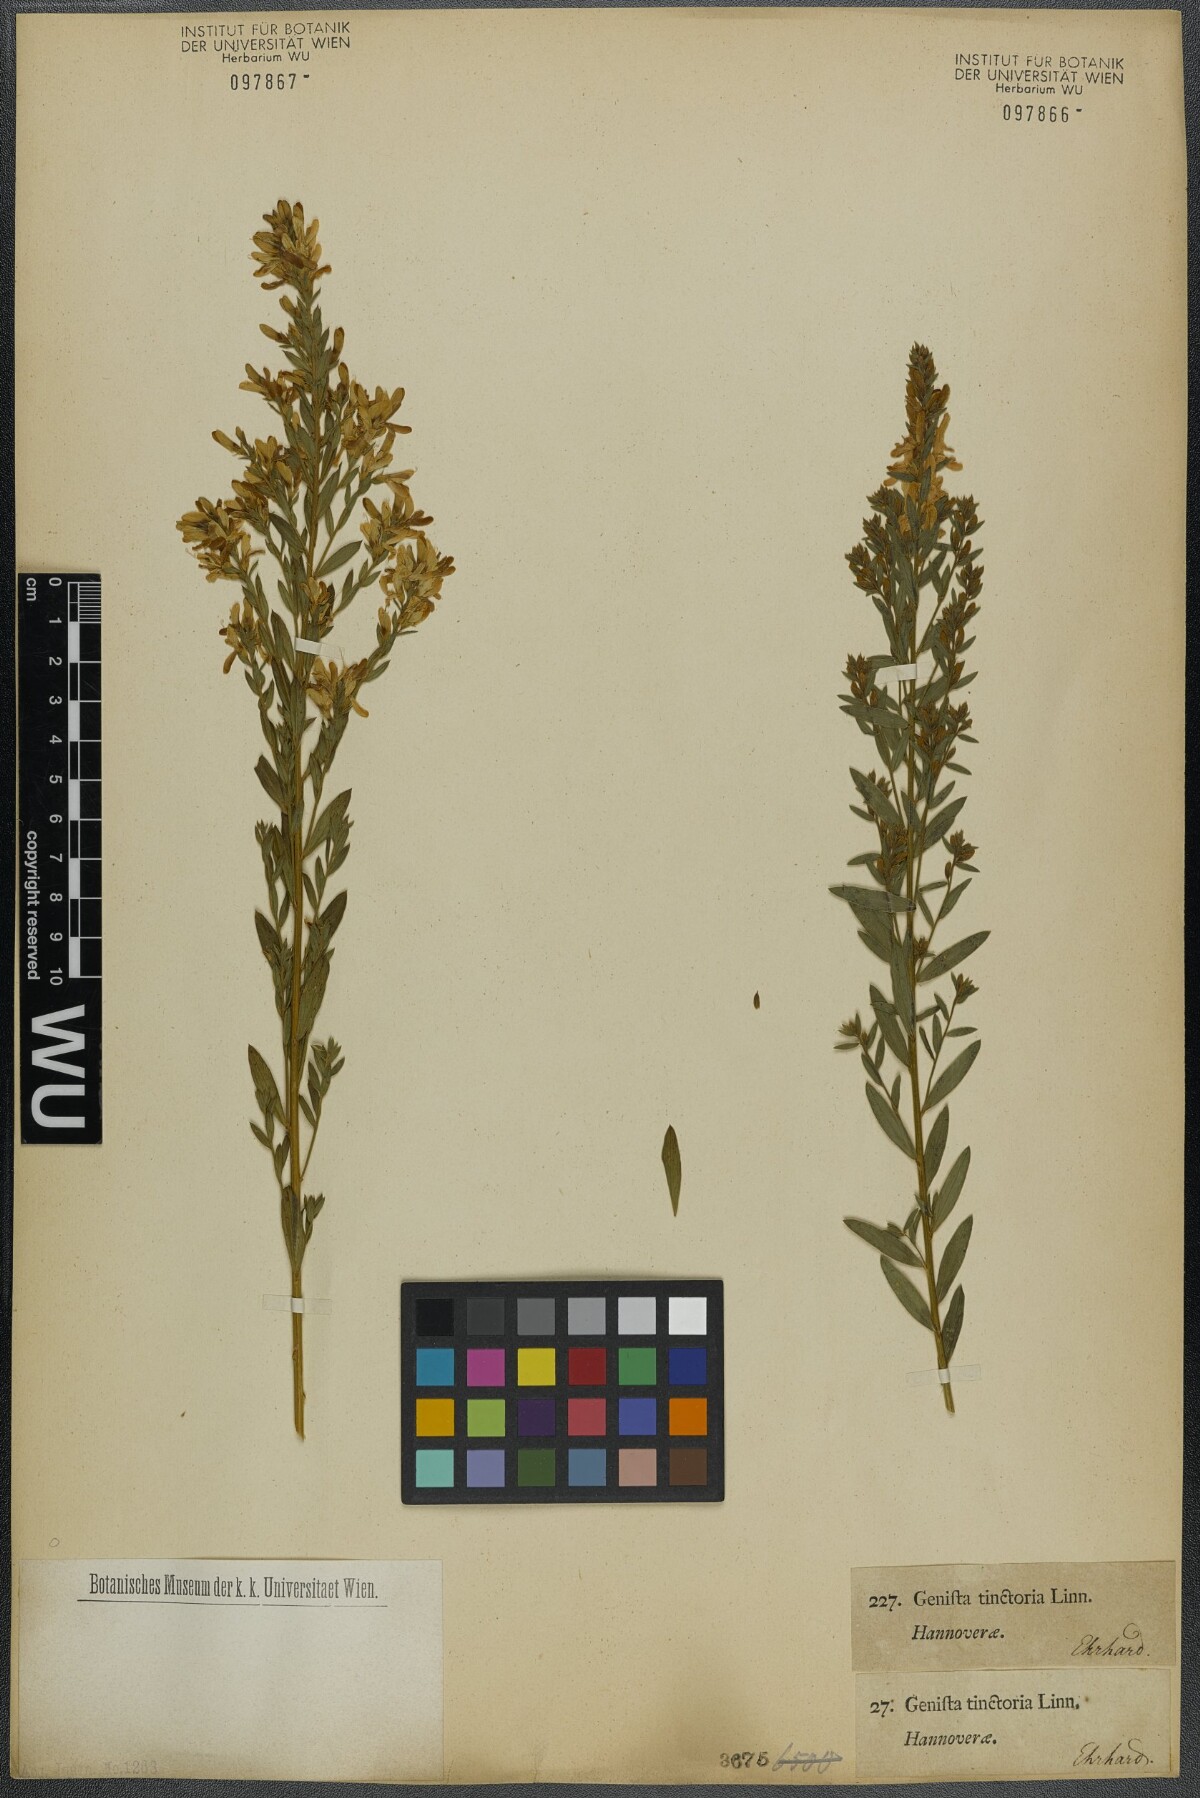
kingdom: Plantae
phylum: Tracheophyta
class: Magnoliopsida
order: Fabales
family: Fabaceae
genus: Genista
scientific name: Genista tinctoria
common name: Dyer's greenweed
